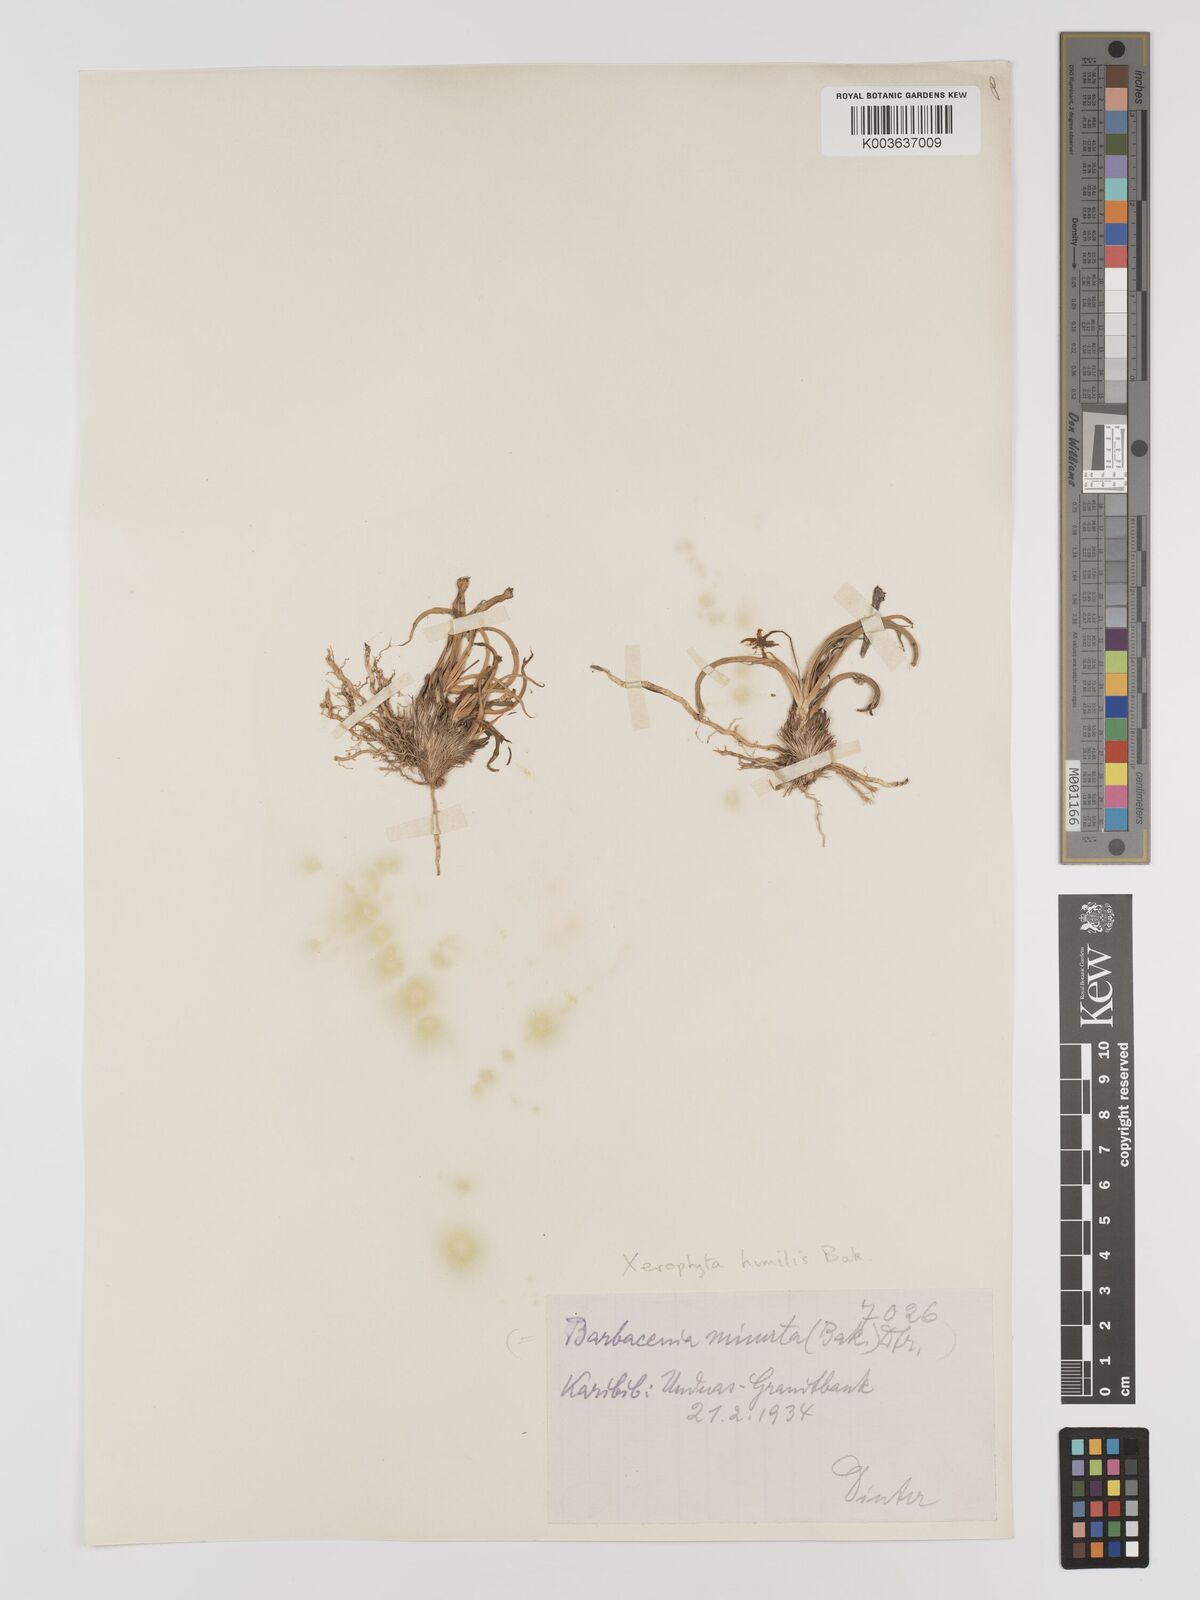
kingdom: Plantae
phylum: Tracheophyta
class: Liliopsida
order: Pandanales
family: Velloziaceae
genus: Xerophyta
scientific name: Xerophyta humilis
